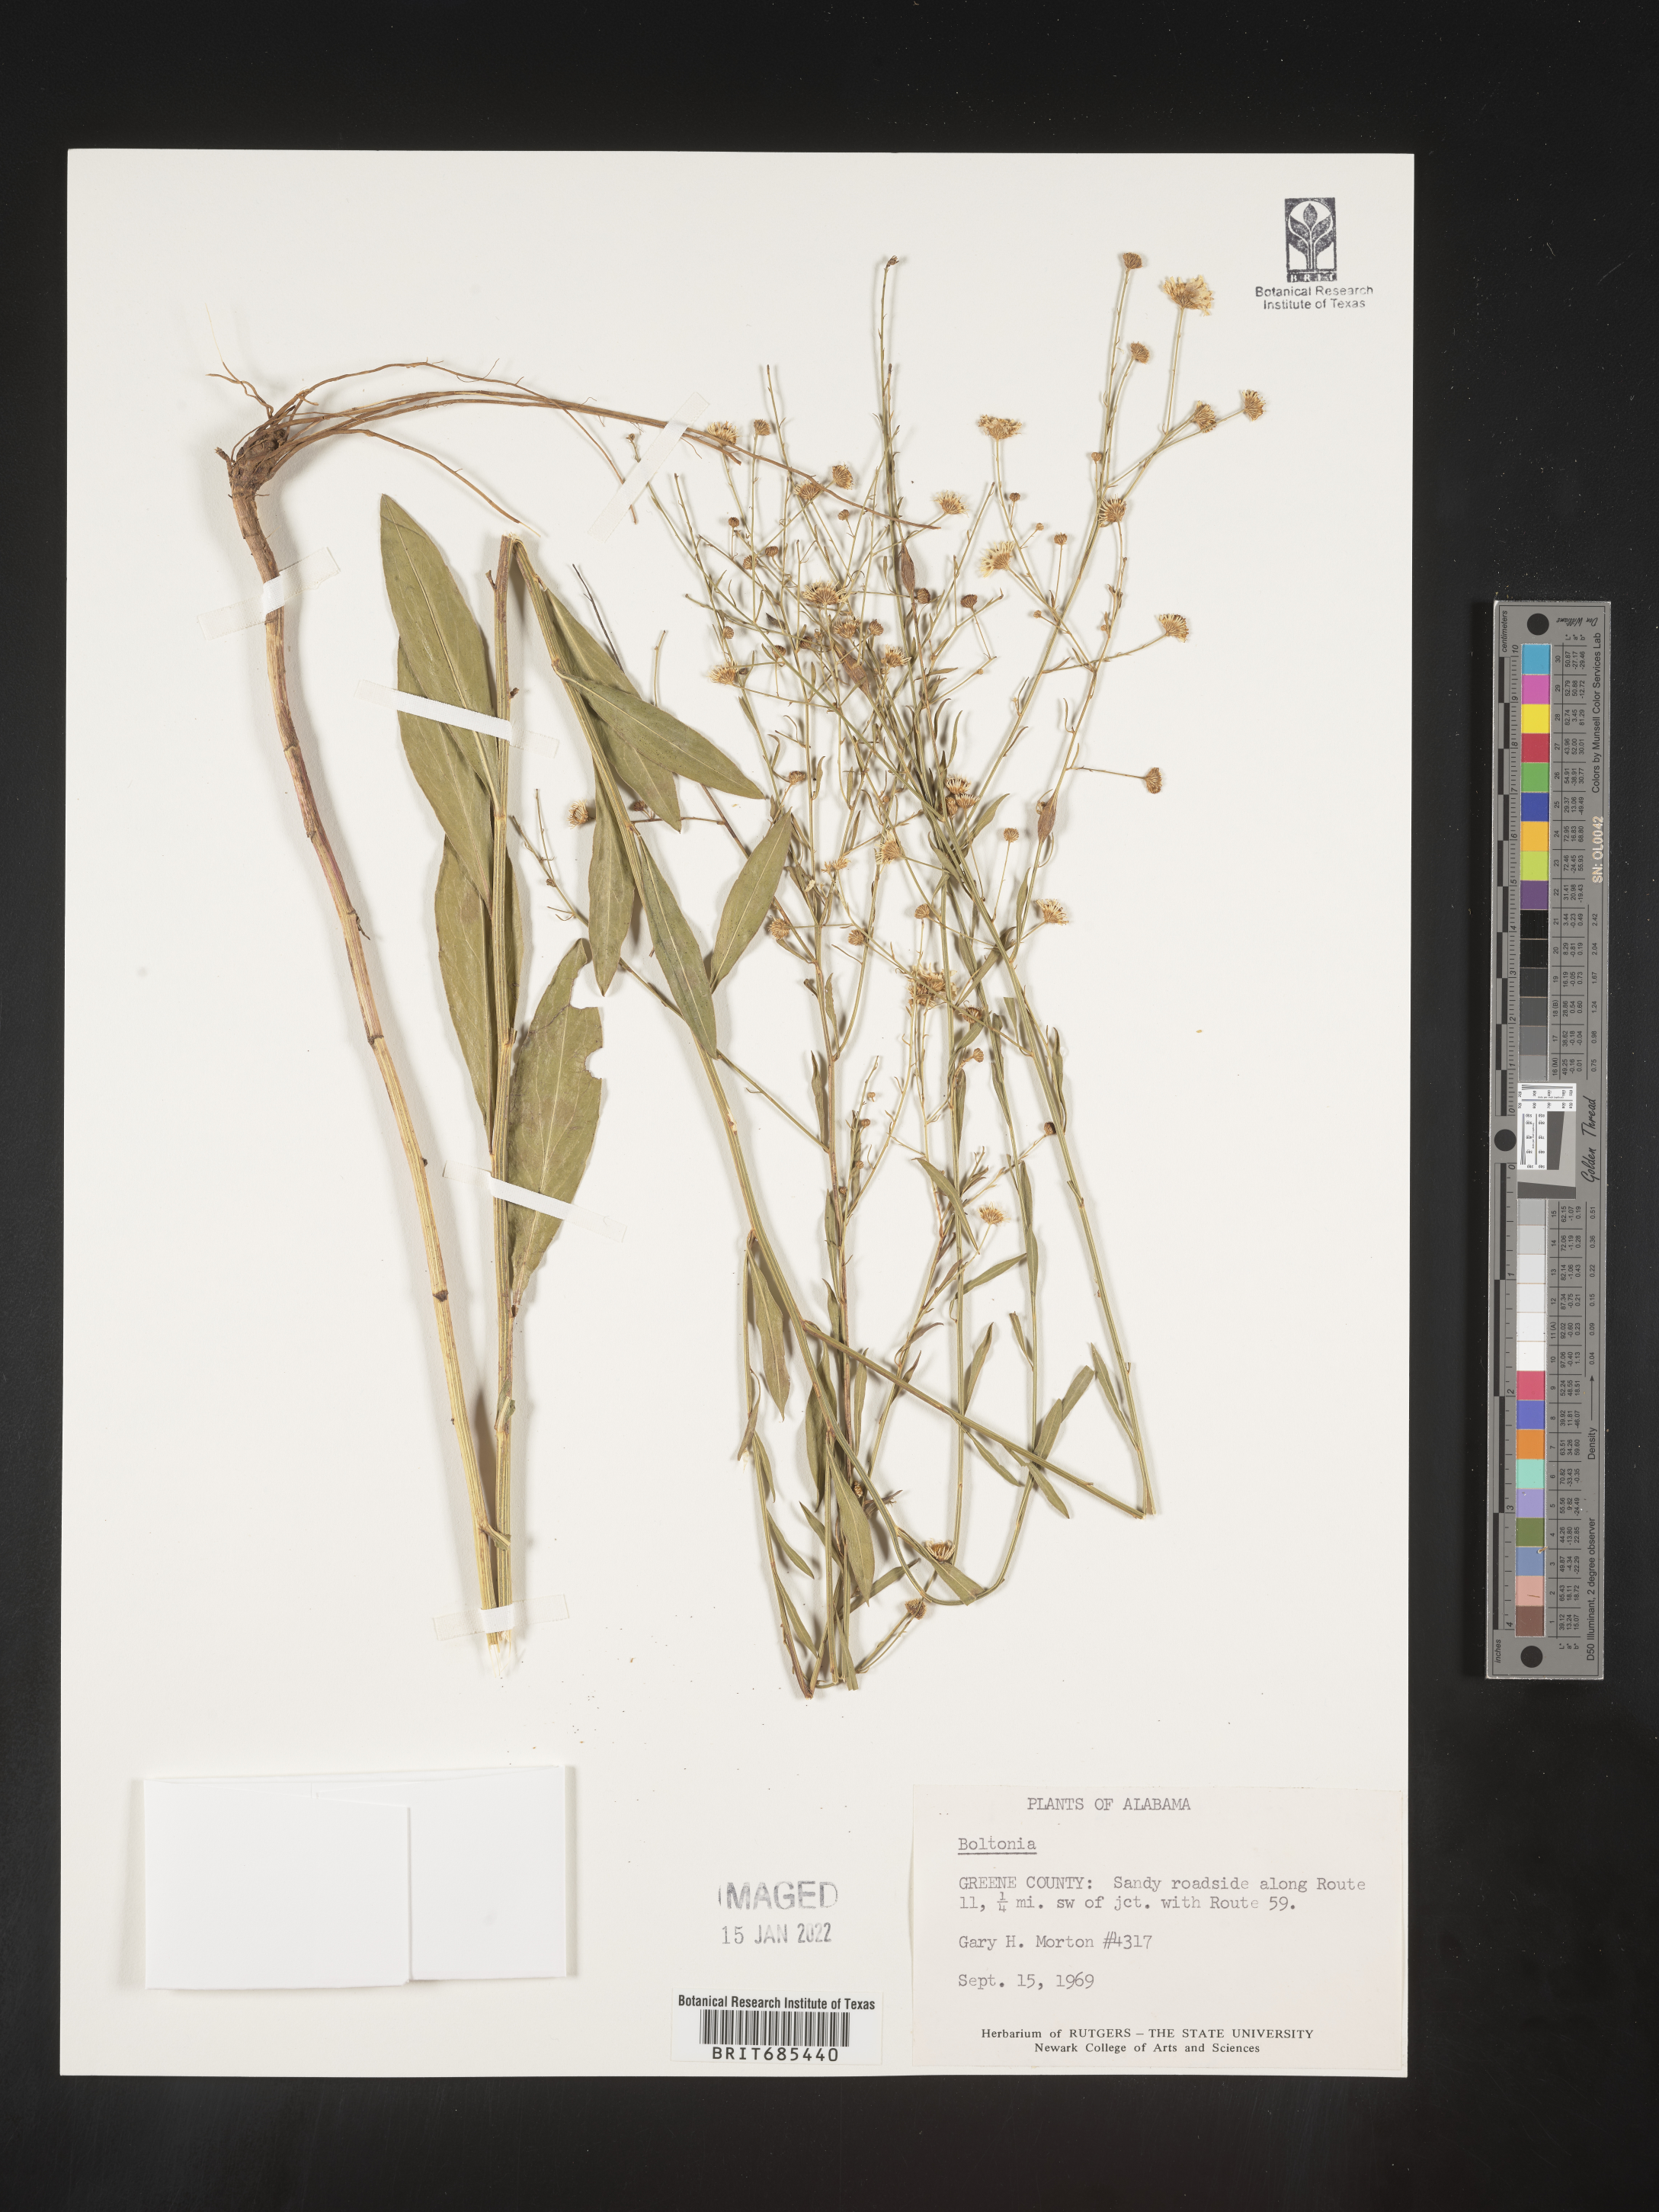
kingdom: Plantae
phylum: Tracheophyta
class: Magnoliopsida
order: Asterales
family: Asteraceae
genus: Boltonia
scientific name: Boltonia diffusa
